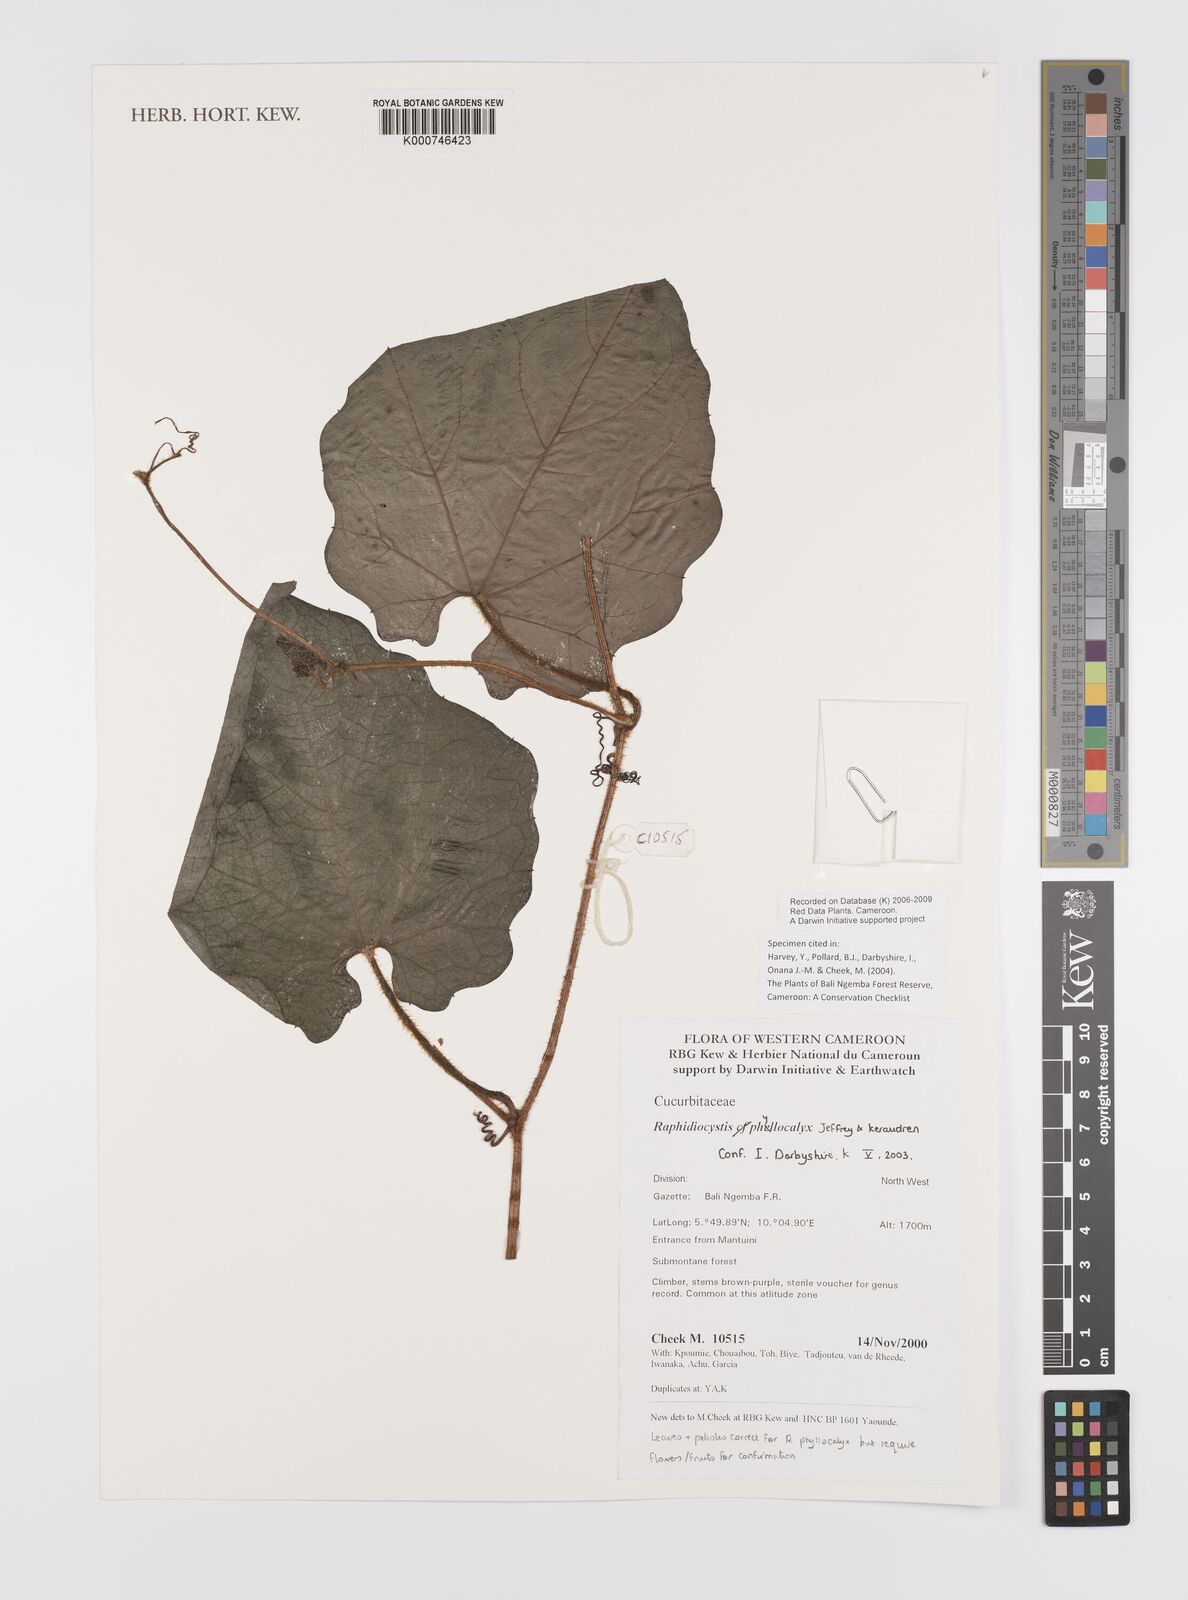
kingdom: Plantae
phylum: Tracheophyta
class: Magnoliopsida
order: Cucurbitales
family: Cucurbitaceae
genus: Raphidiocystis
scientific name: Raphidiocystis phyllocalyx
